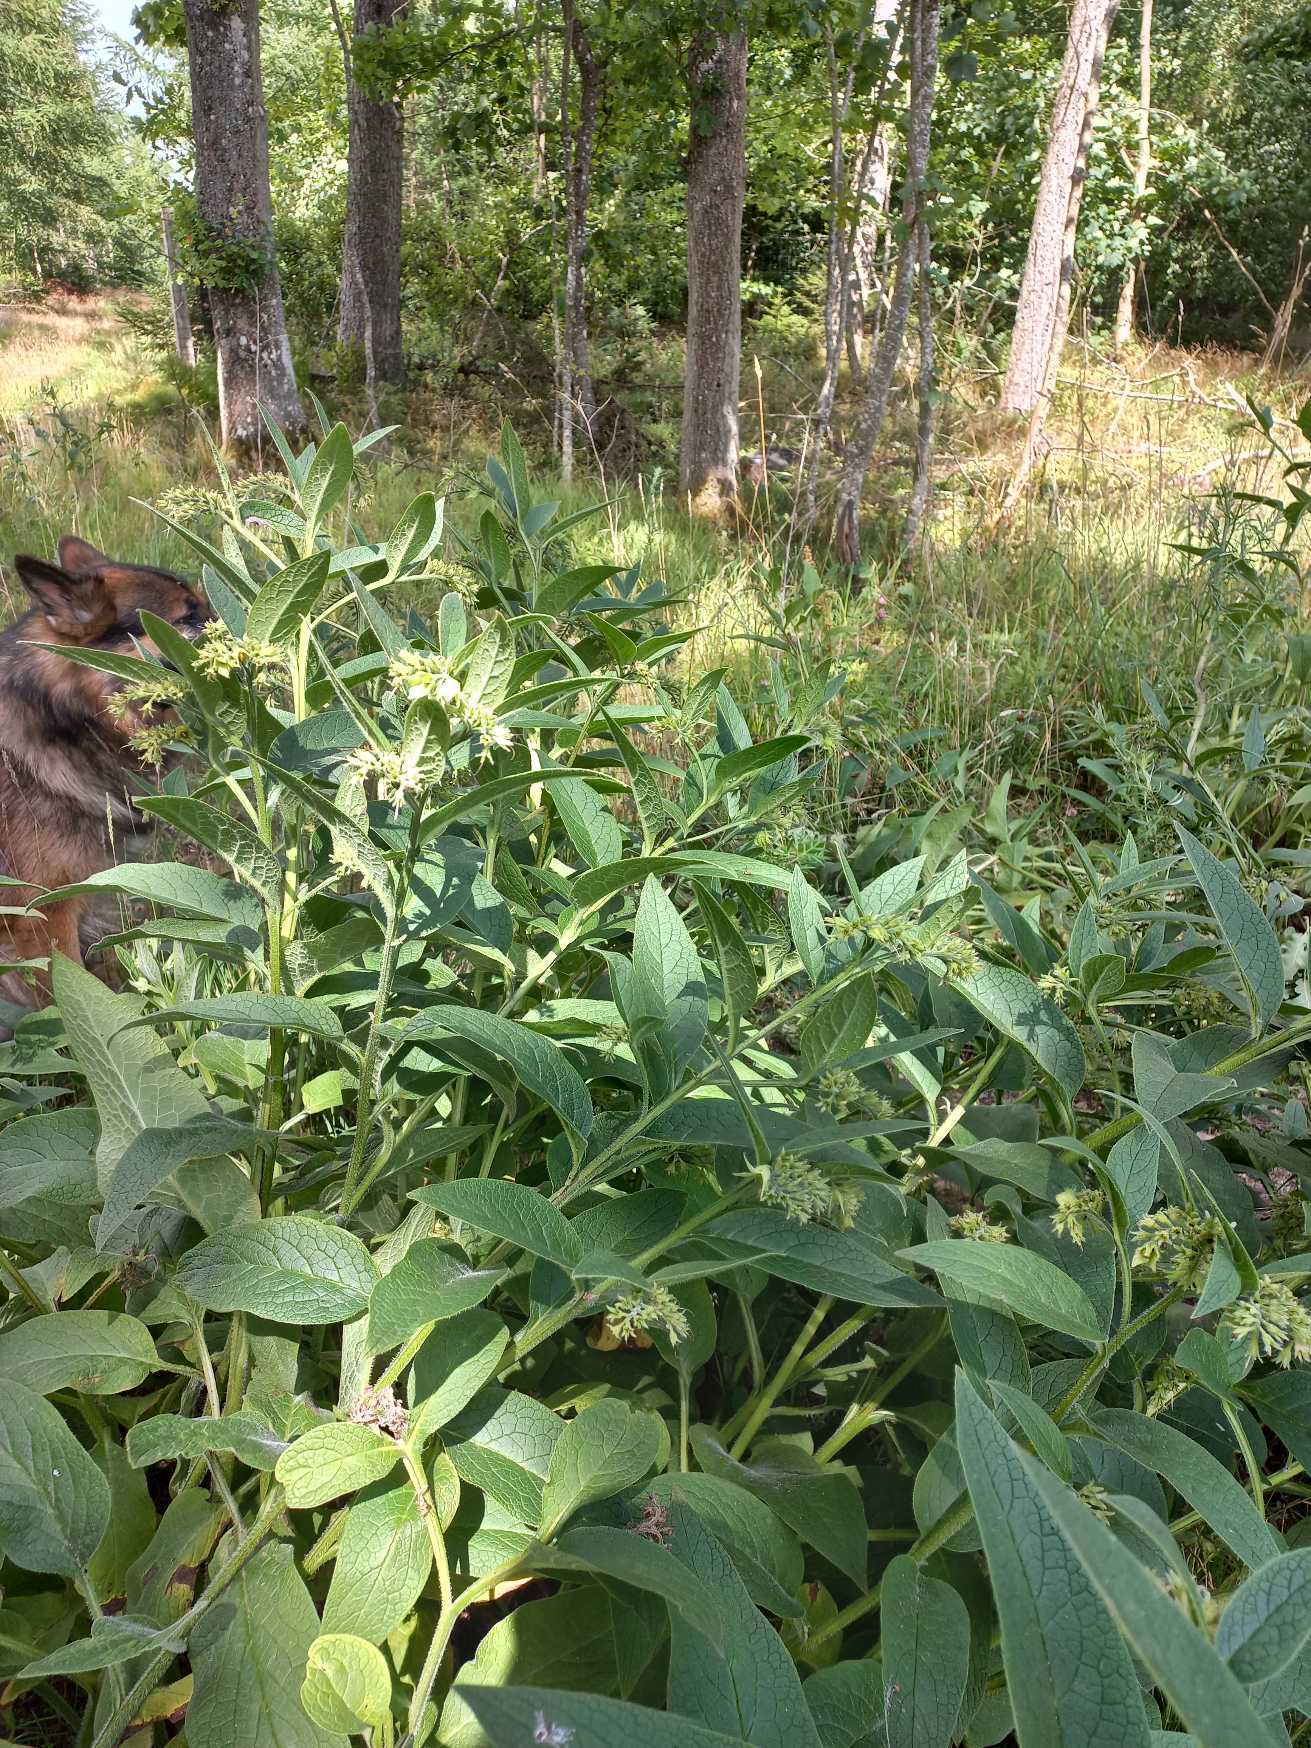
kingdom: Plantae
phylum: Tracheophyta
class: Magnoliopsida
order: Boraginales
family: Boraginaceae
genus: Symphytum
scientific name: Symphytum uplandicum
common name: Foder-kulsukker
